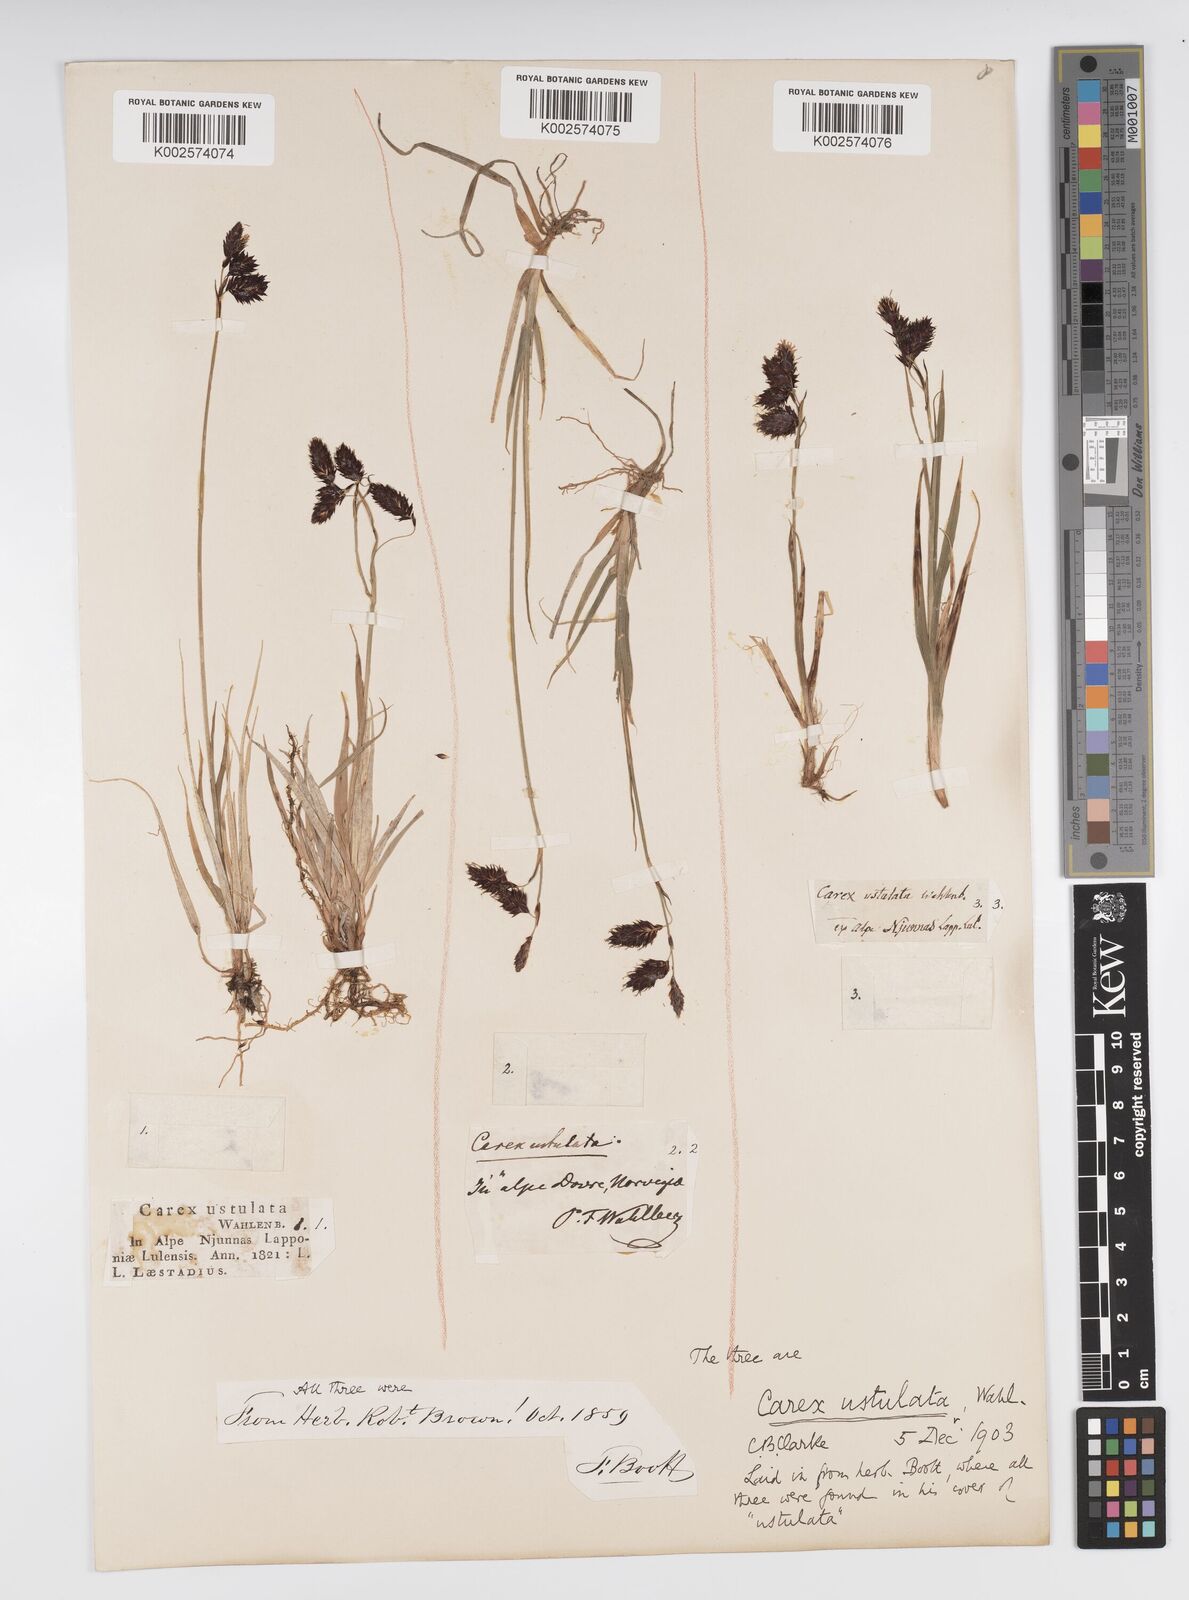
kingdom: Plantae
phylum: Tracheophyta
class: Liliopsida
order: Poales
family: Cyperaceae
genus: Carex
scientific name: Carex atrofusca
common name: Scorched alpine-sedge
